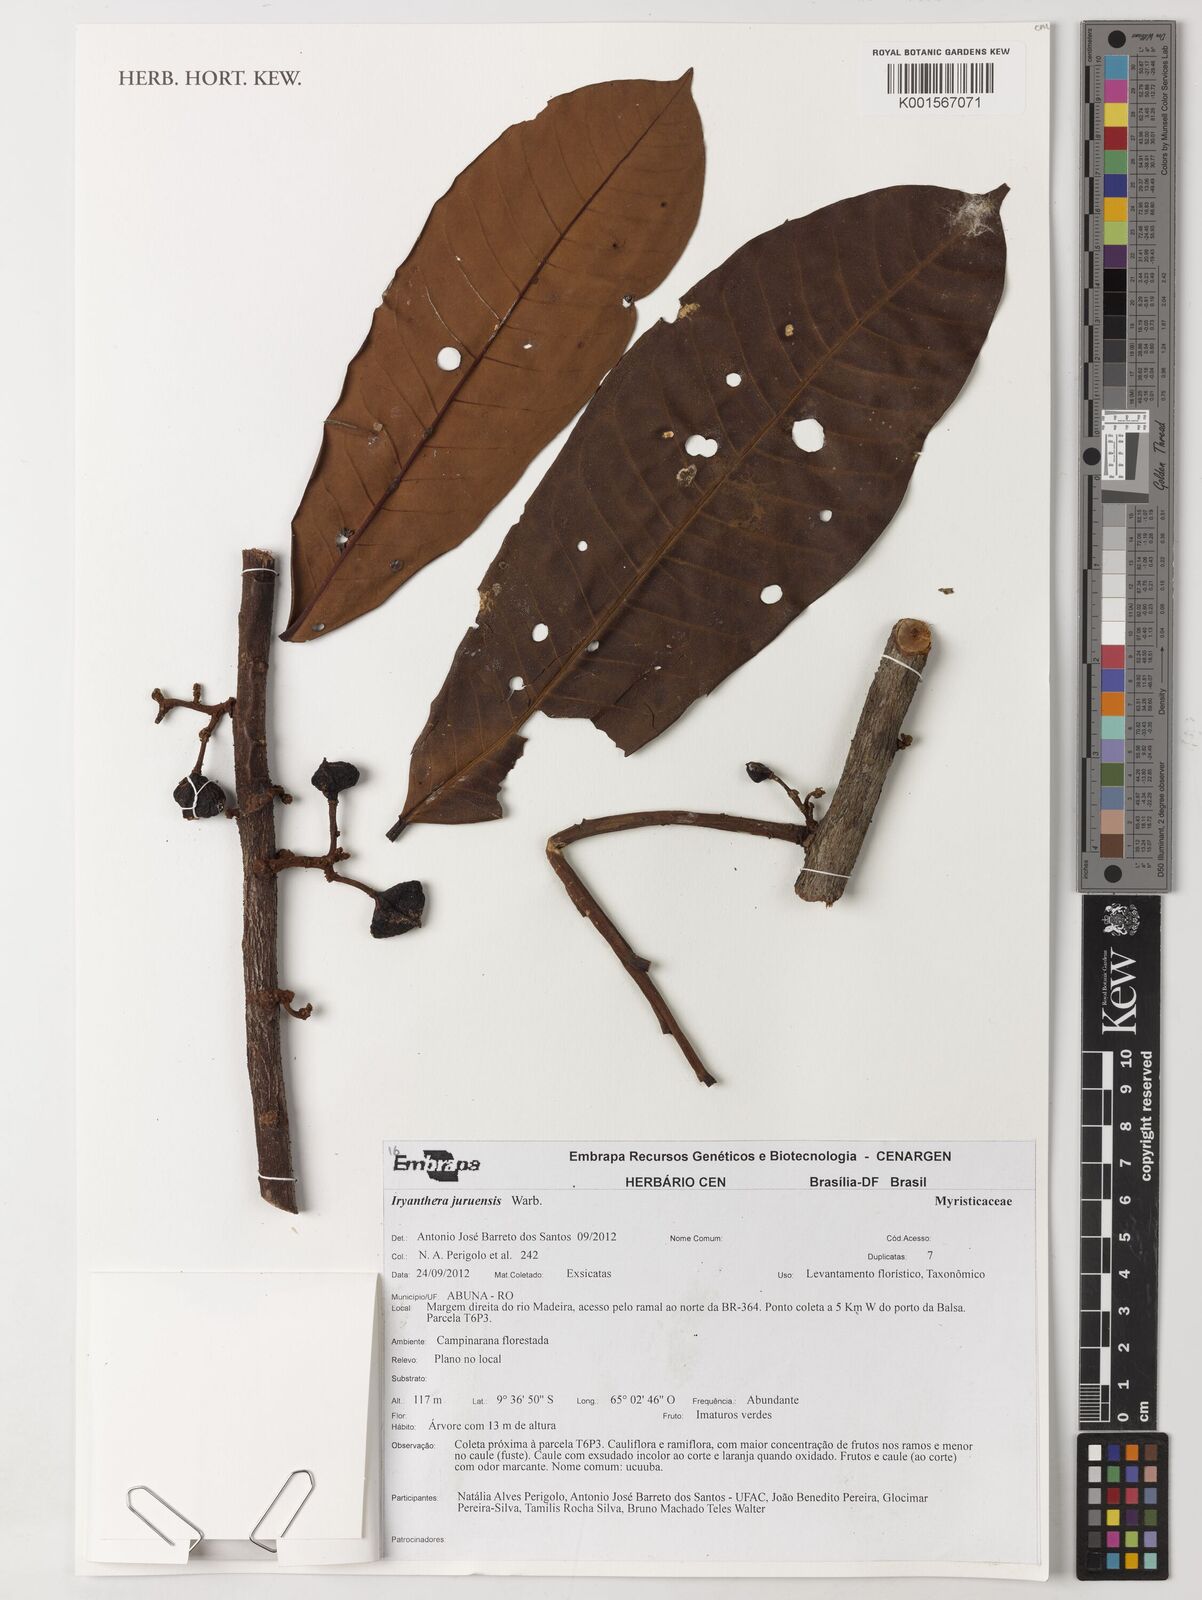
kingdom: Plantae
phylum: Tracheophyta
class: Magnoliopsida
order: Magnoliales
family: Myristicaceae
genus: Iryanthera
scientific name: Iryanthera juruensis
